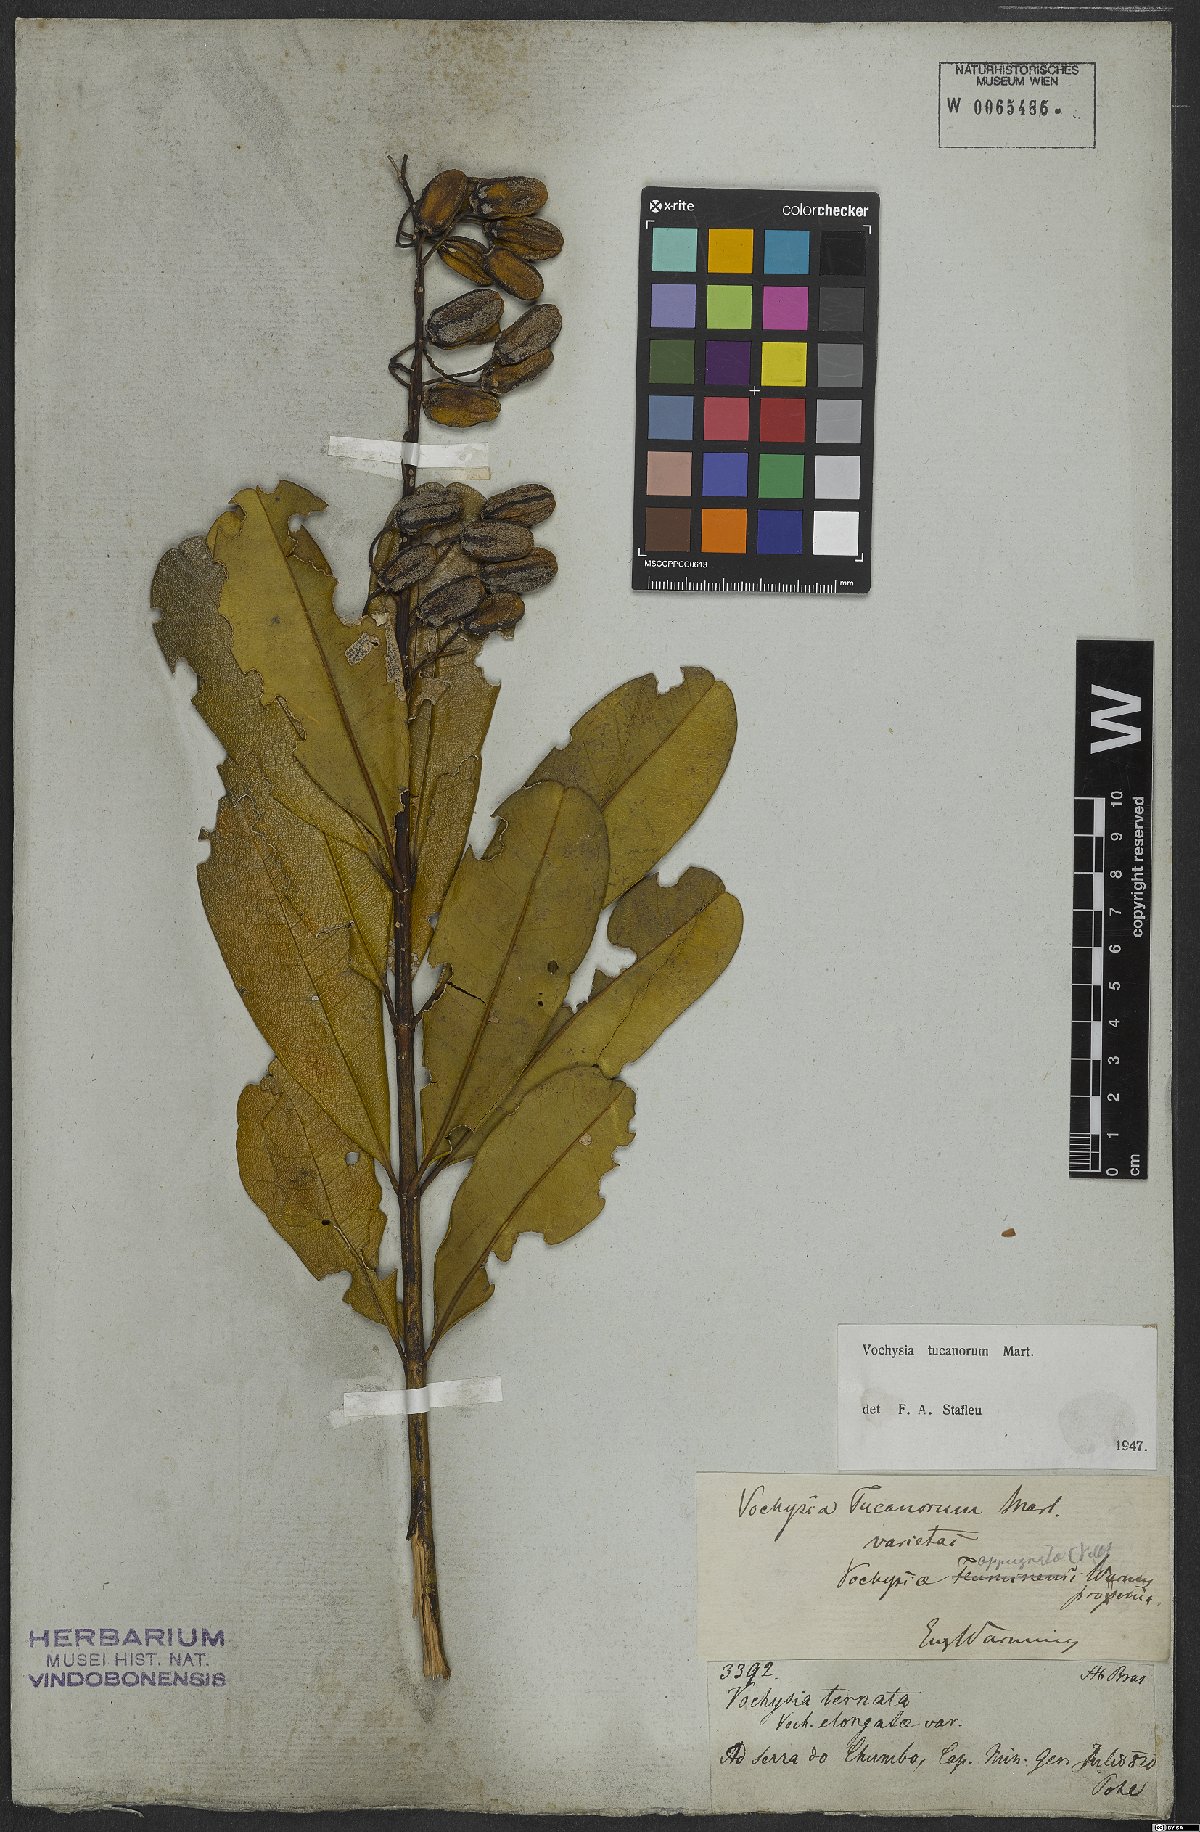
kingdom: Plantae
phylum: Tracheophyta
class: Magnoliopsida
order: Myrtales
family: Vochysiaceae
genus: Vochysia
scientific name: Vochysia tucanorum
